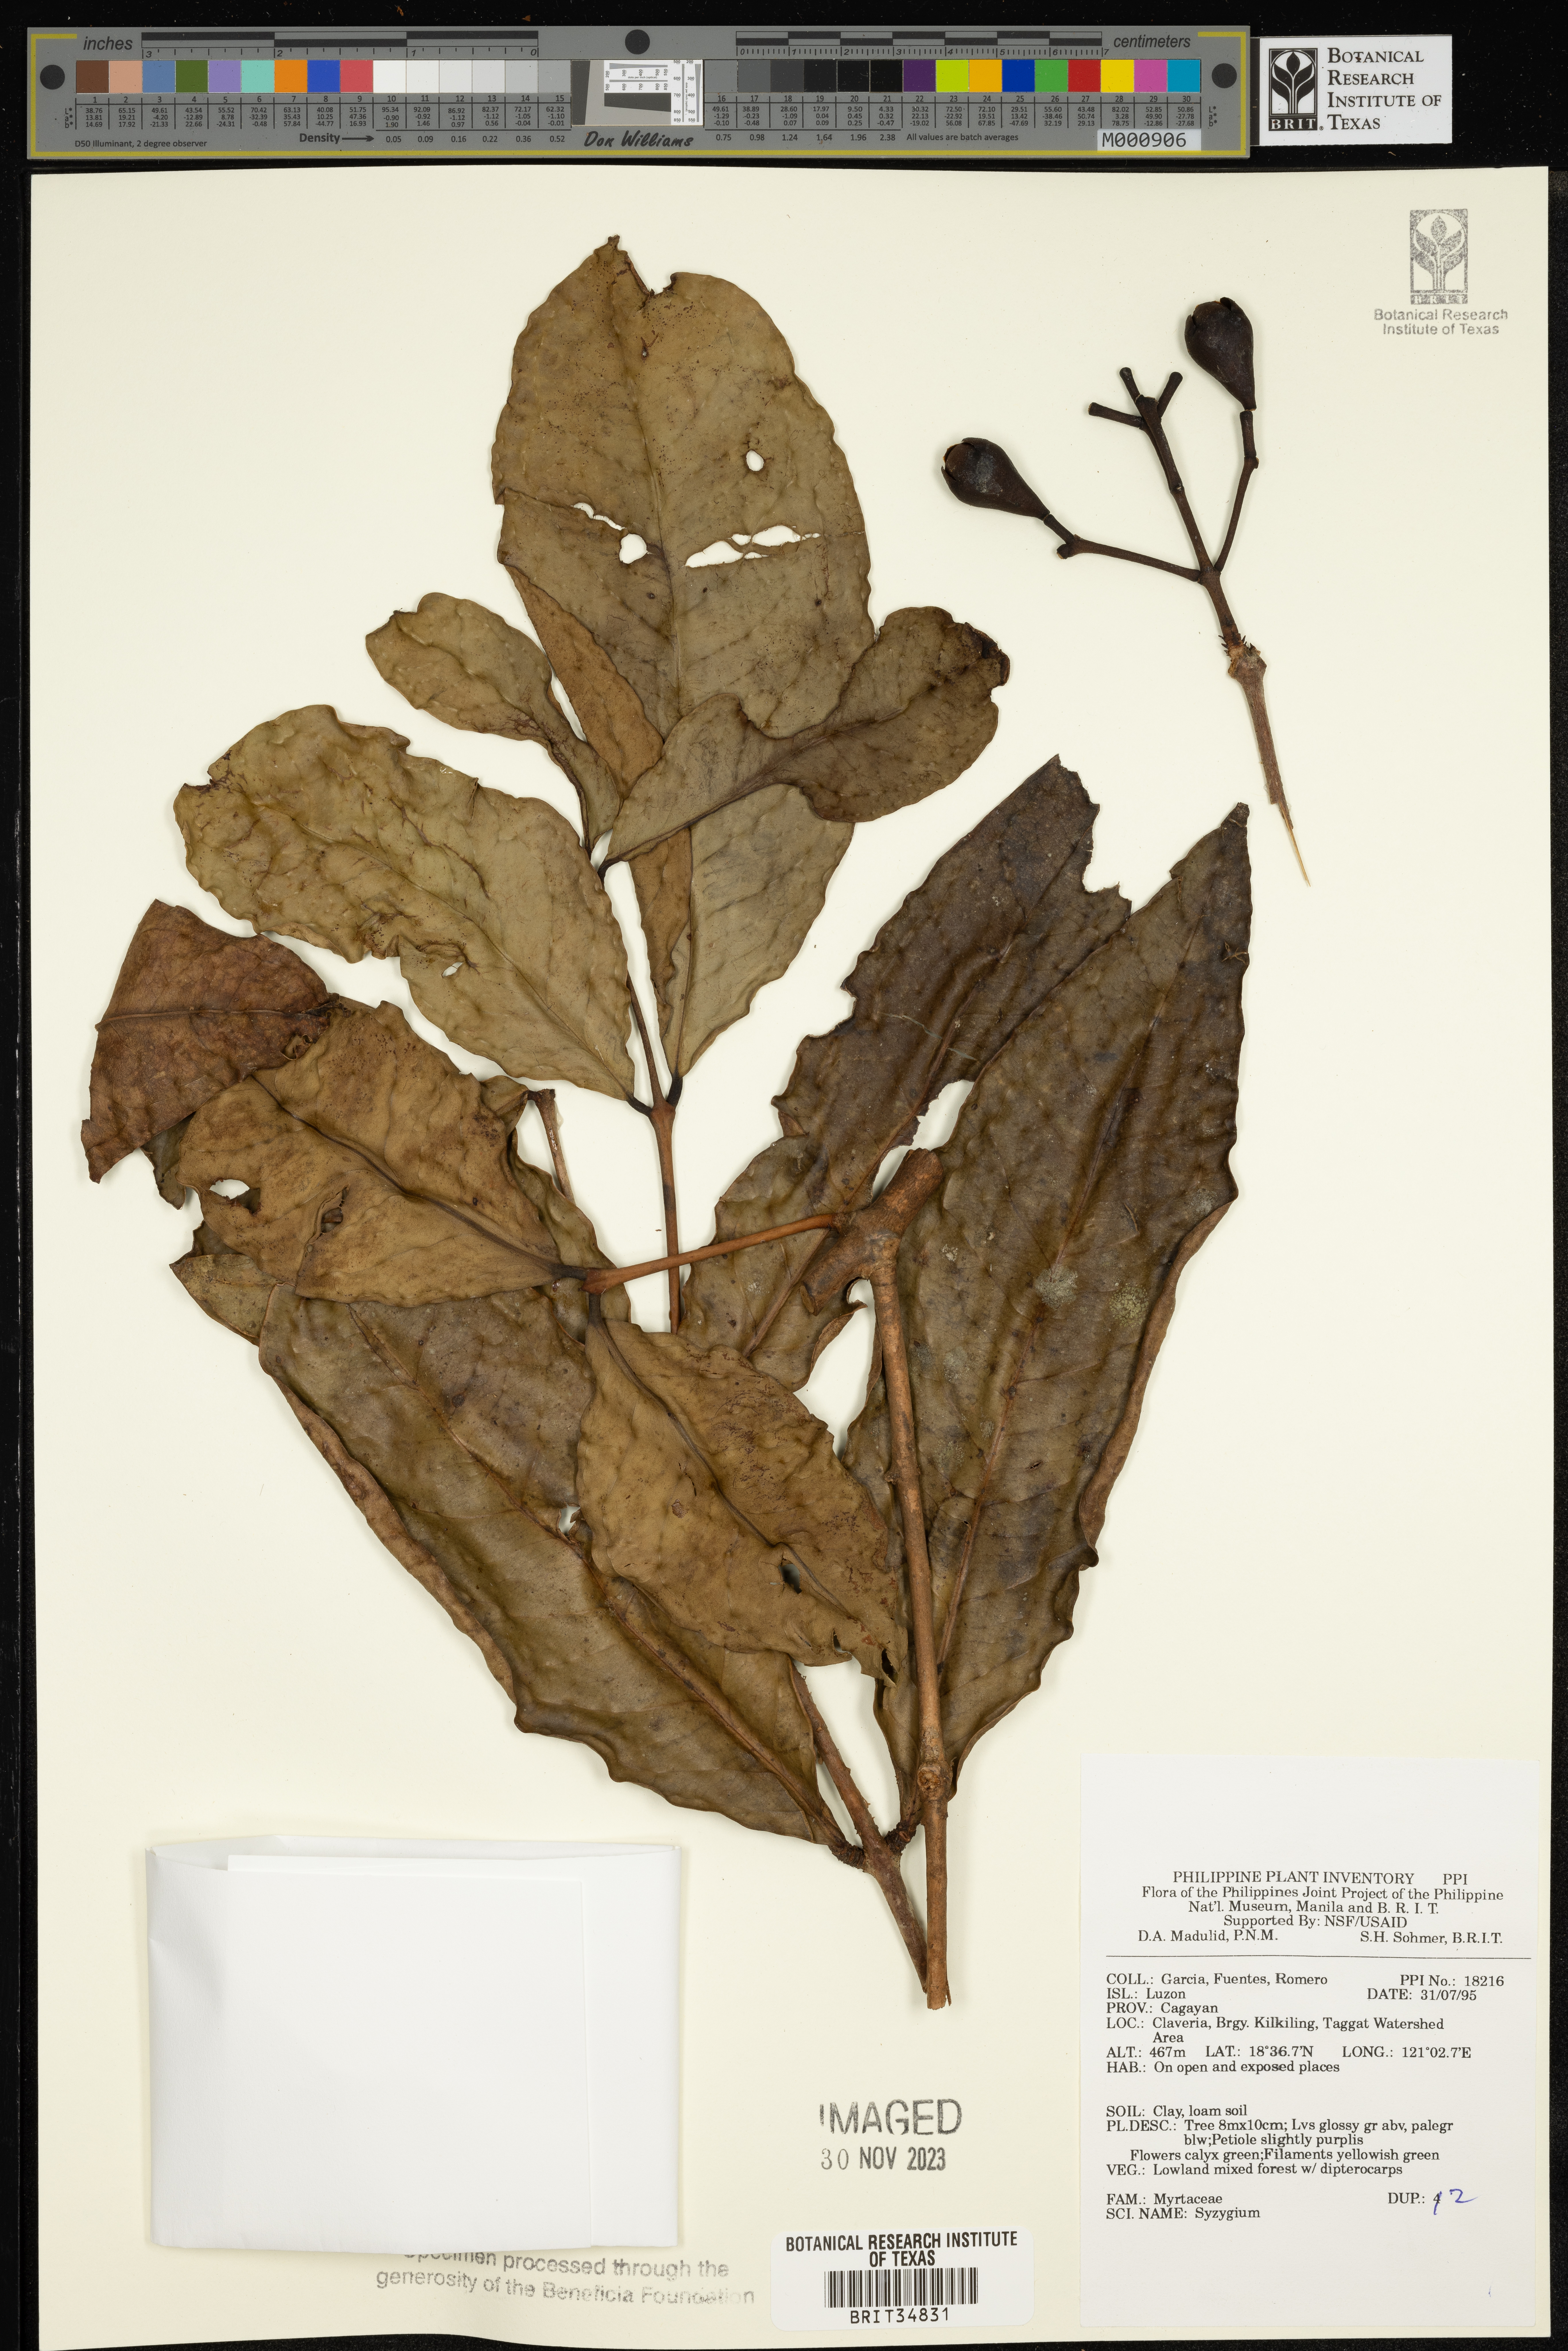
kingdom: Plantae
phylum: Tracheophyta
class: Magnoliopsida
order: Myrtales
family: Myrtaceae
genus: Syzygium
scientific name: Syzygium
